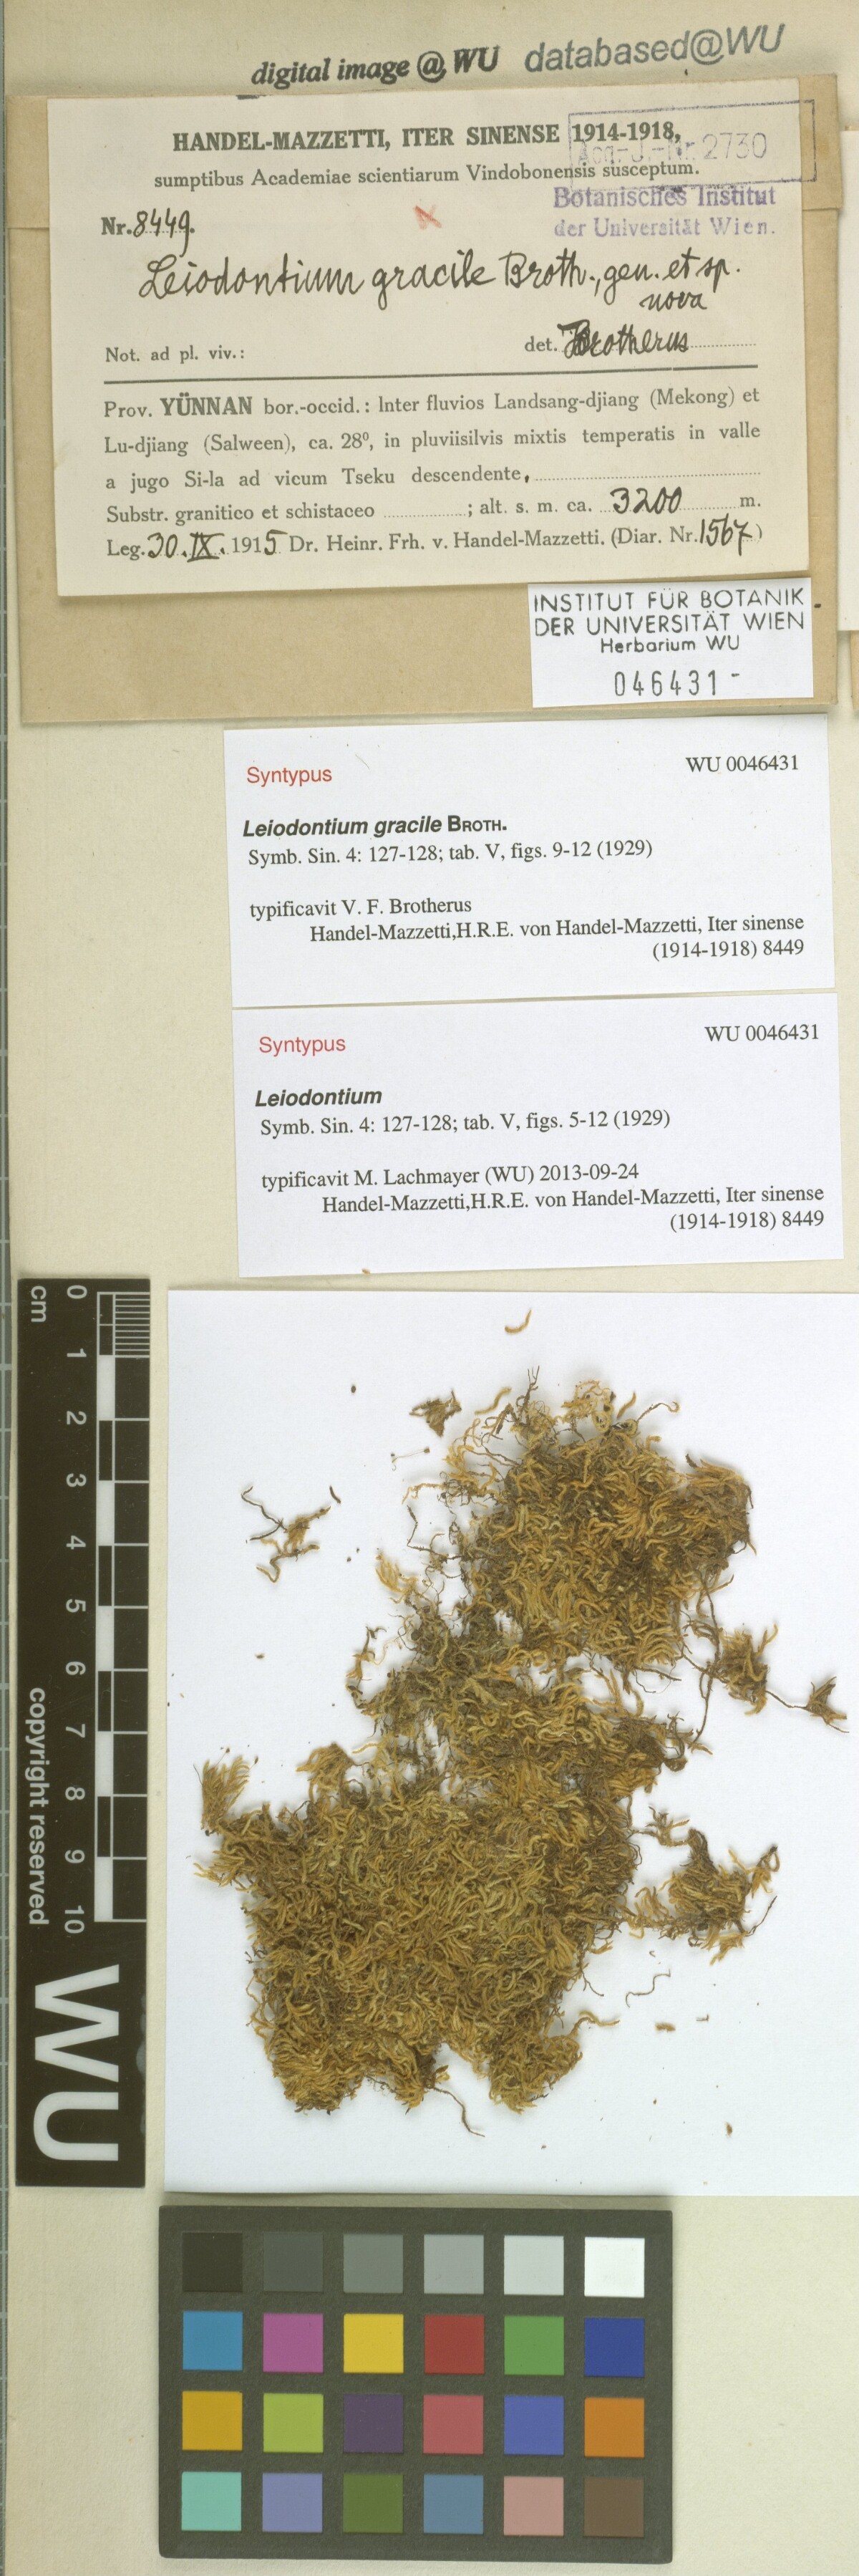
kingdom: Plantae
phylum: Bryophyta
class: Bryopsida
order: Hypnales
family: Hypnaceae
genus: Leiodontium
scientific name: Leiodontium gracile
